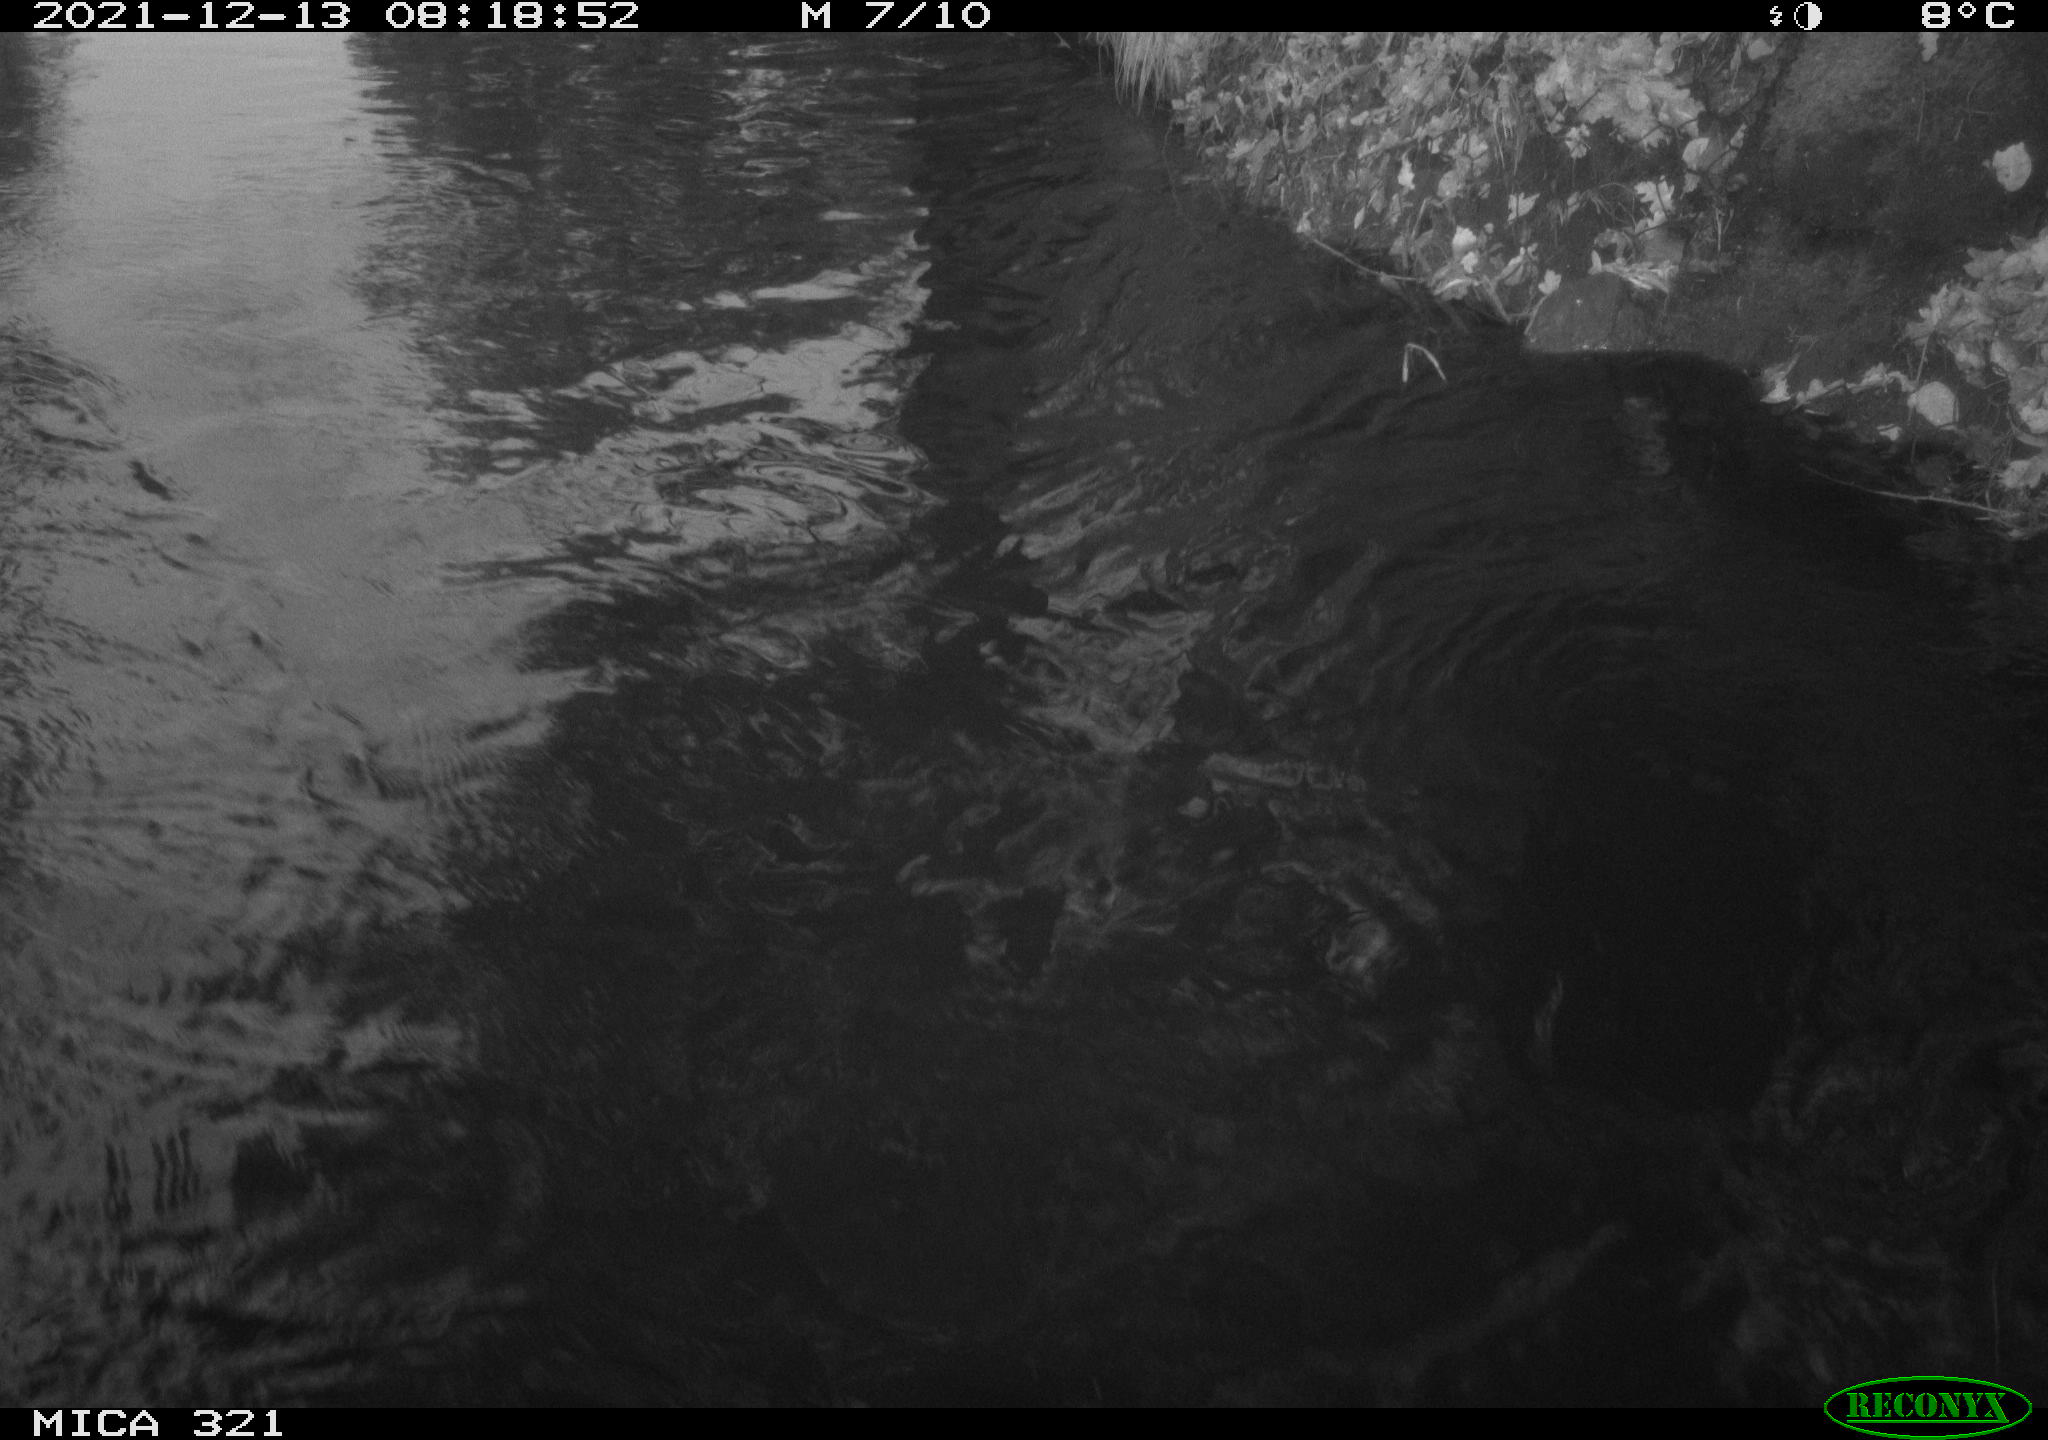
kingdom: Animalia
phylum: Chordata
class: Aves
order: Suliformes
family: Phalacrocoracidae
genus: Phalacrocorax
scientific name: Phalacrocorax carbo
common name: Great cormorant
